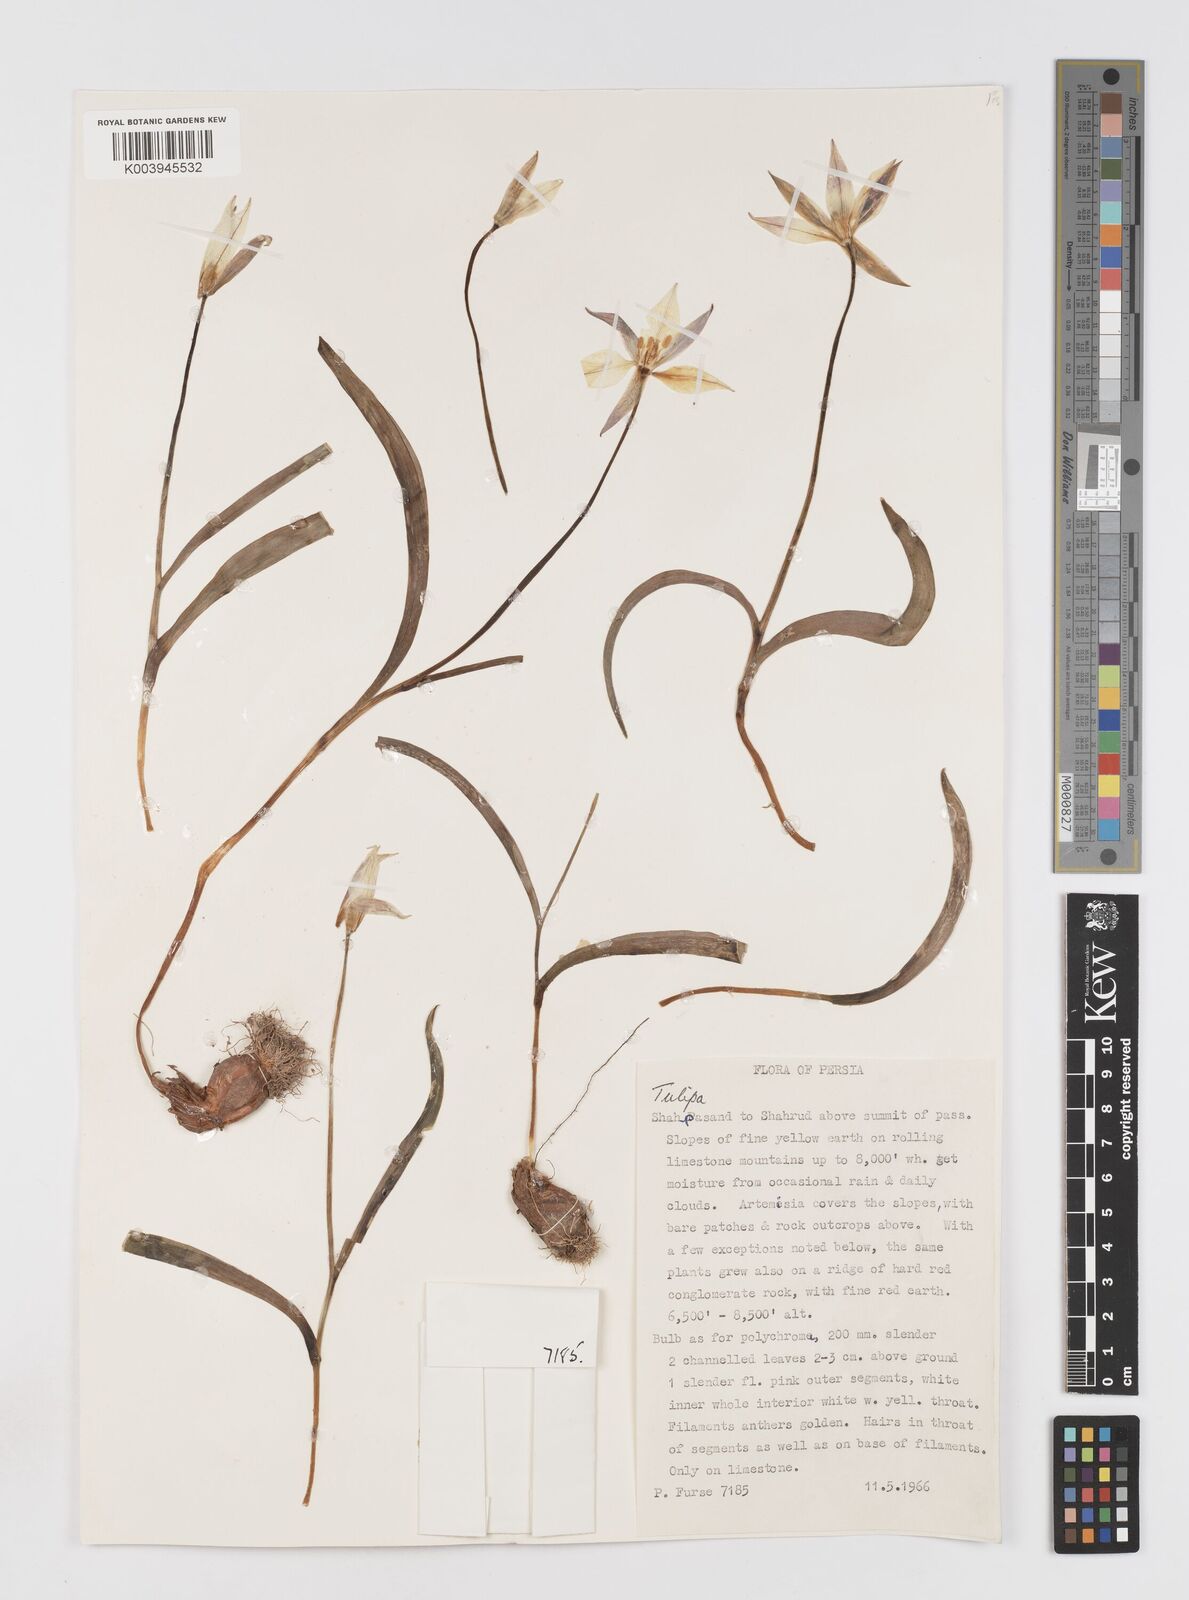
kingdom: Plantae
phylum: Tracheophyta
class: Liliopsida
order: Liliales
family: Liliaceae
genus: Tulipa
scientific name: Tulipa
